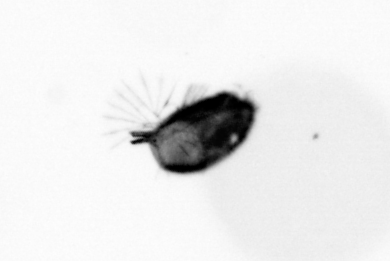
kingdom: Animalia
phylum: Arthropoda
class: Maxillopoda
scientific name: Maxillopoda
